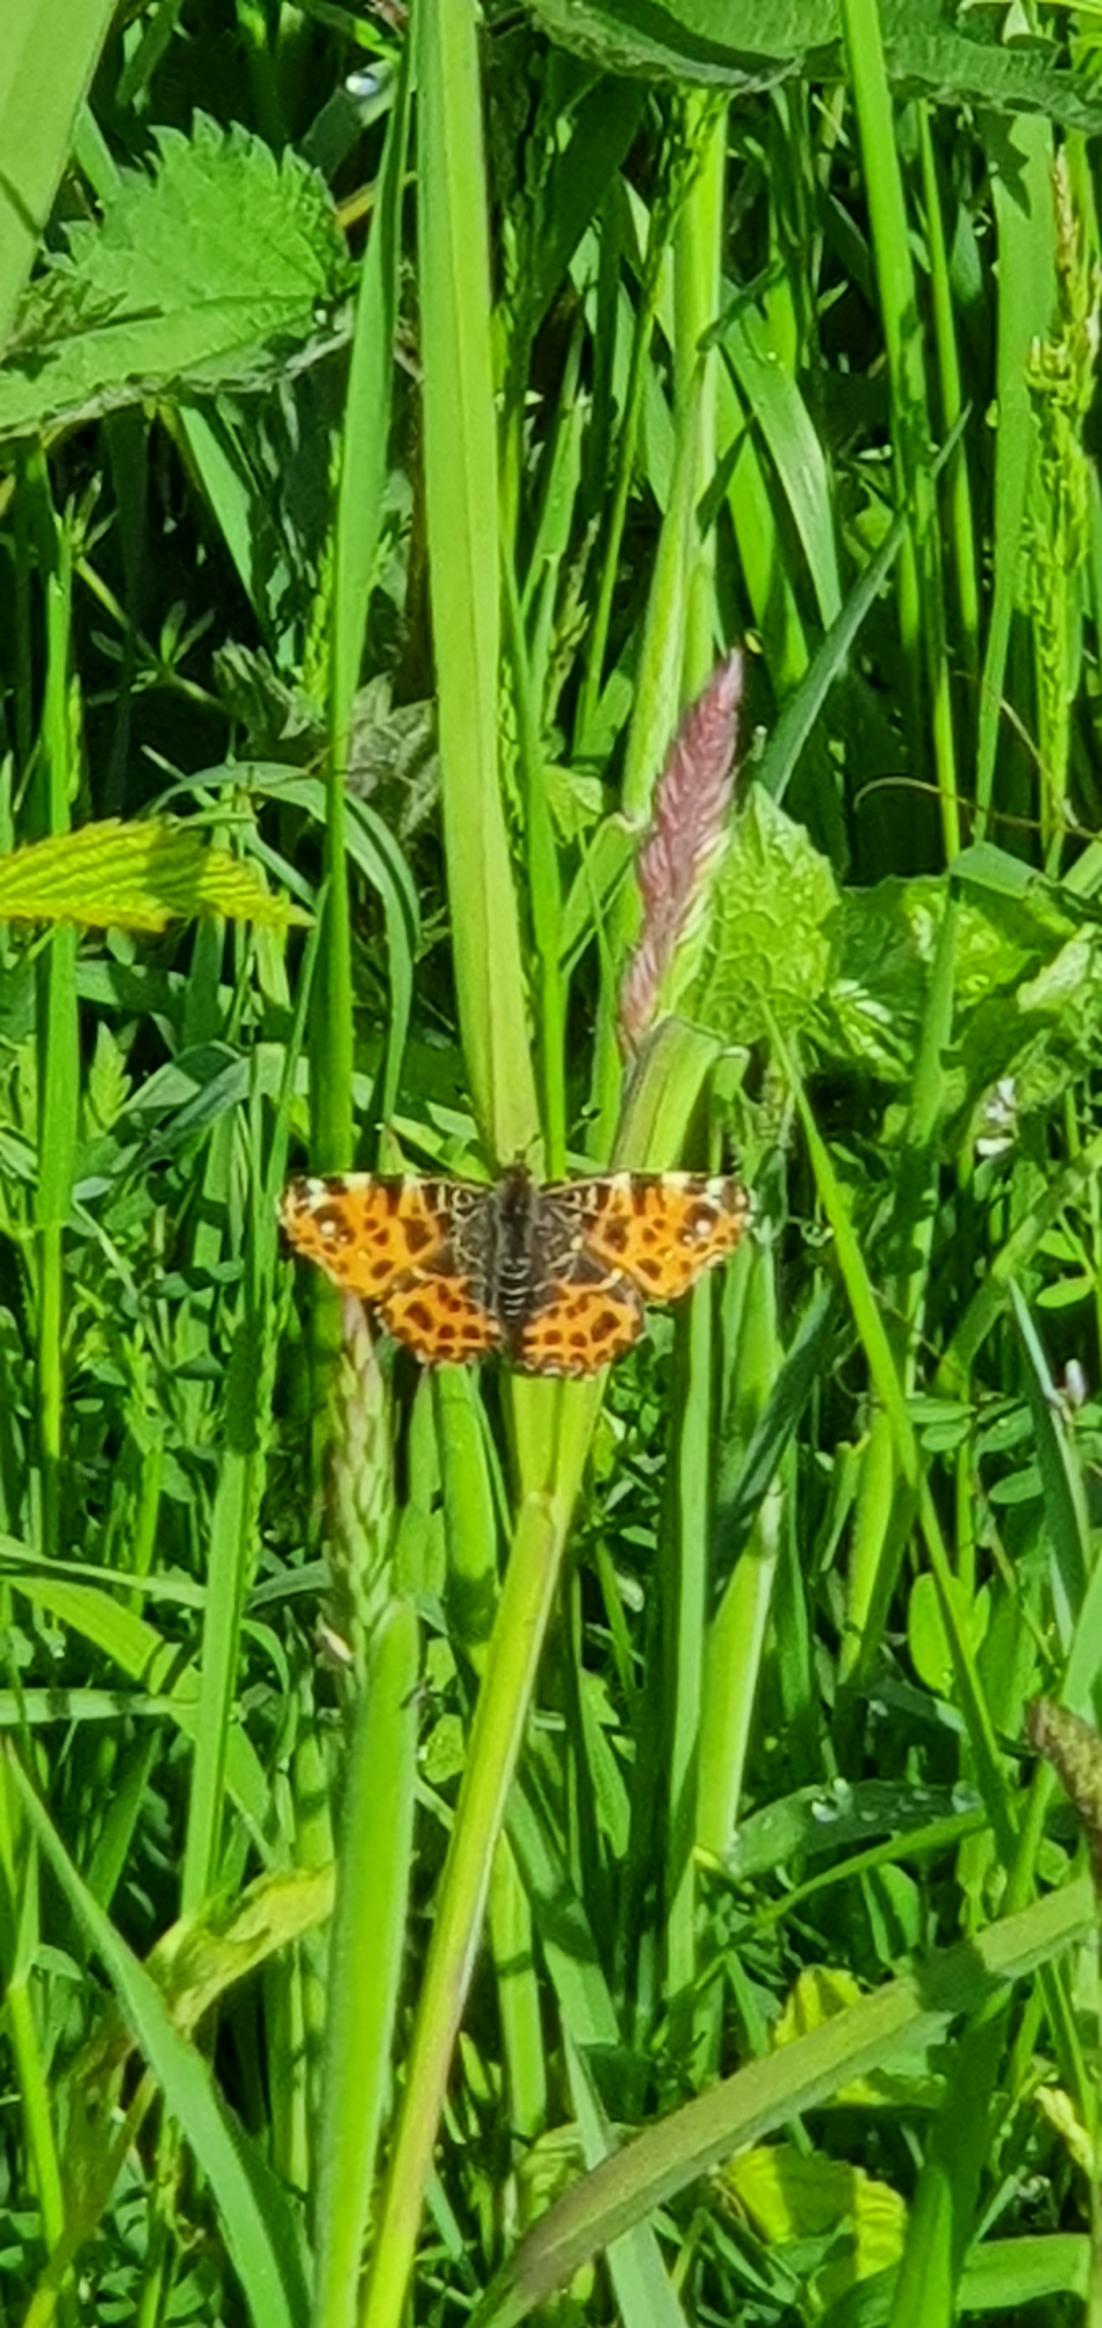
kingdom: Animalia
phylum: Arthropoda
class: Insecta
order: Lepidoptera
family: Nymphalidae
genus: Araschnia
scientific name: Araschnia levana
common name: Nældesommerfugl
